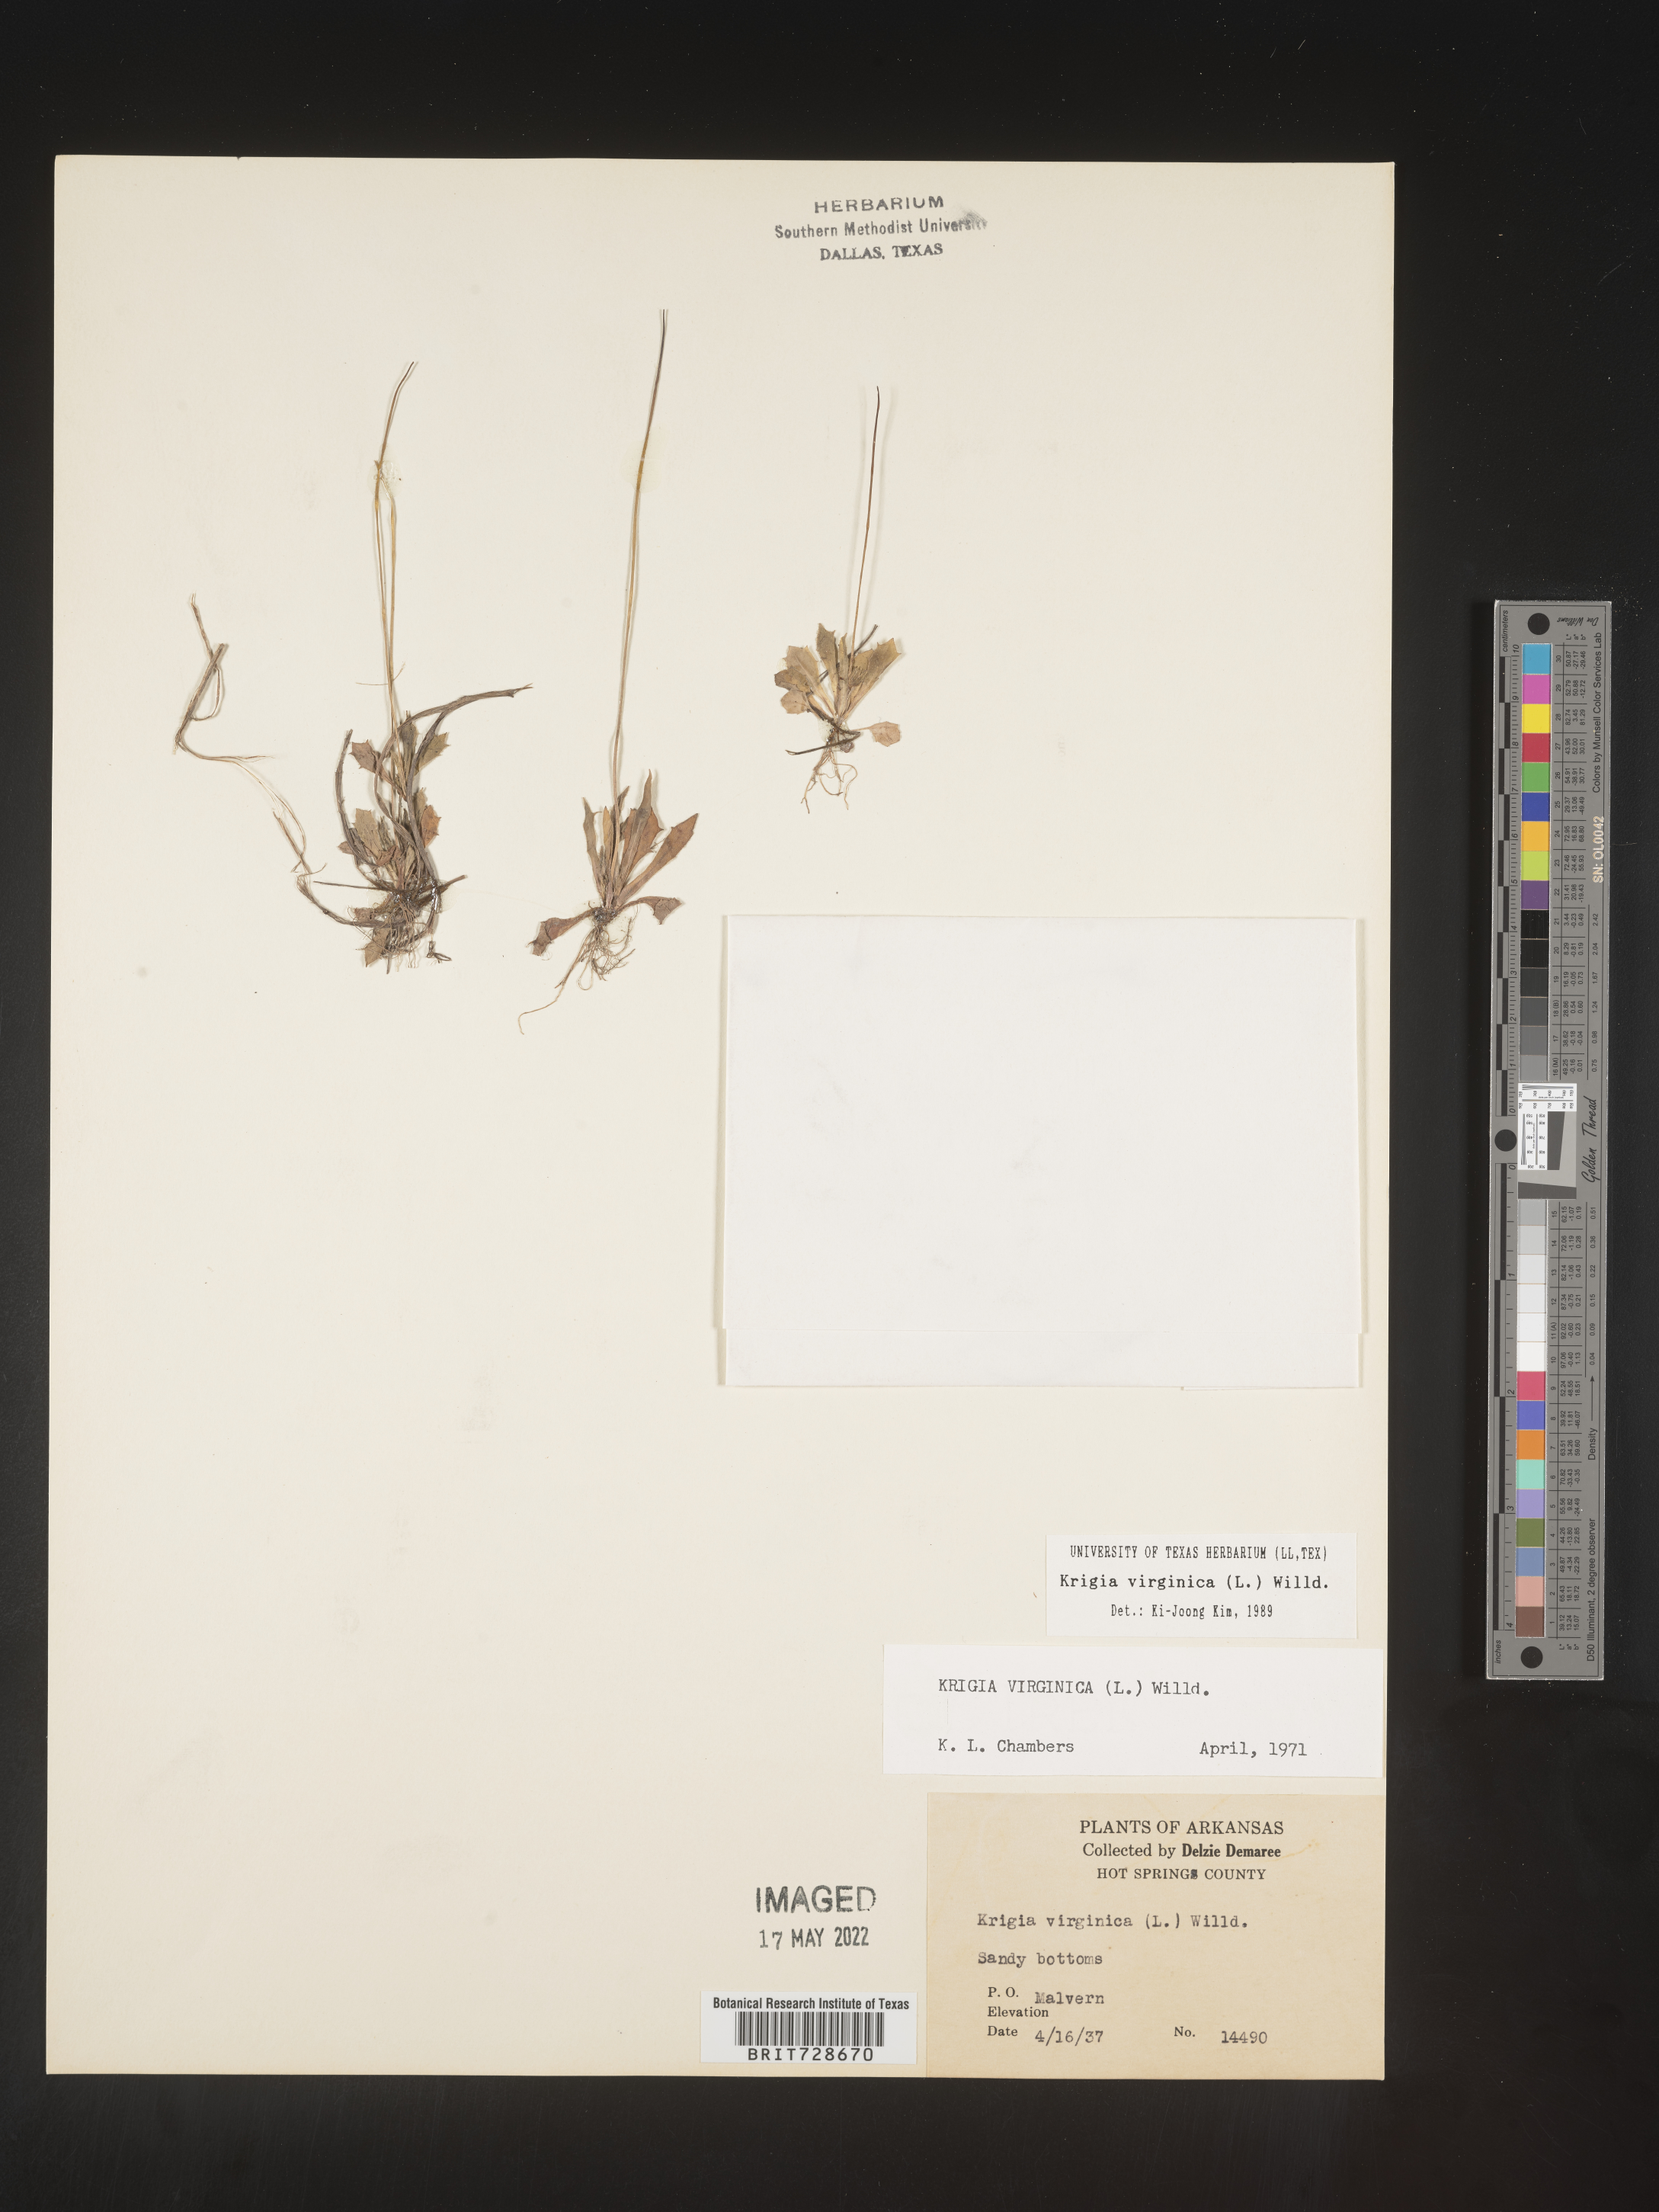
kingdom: Plantae
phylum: Tracheophyta
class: Magnoliopsida
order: Asterales
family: Asteraceae
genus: Krigia
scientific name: Krigia virginica
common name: Virginia dwarf-dandelion
